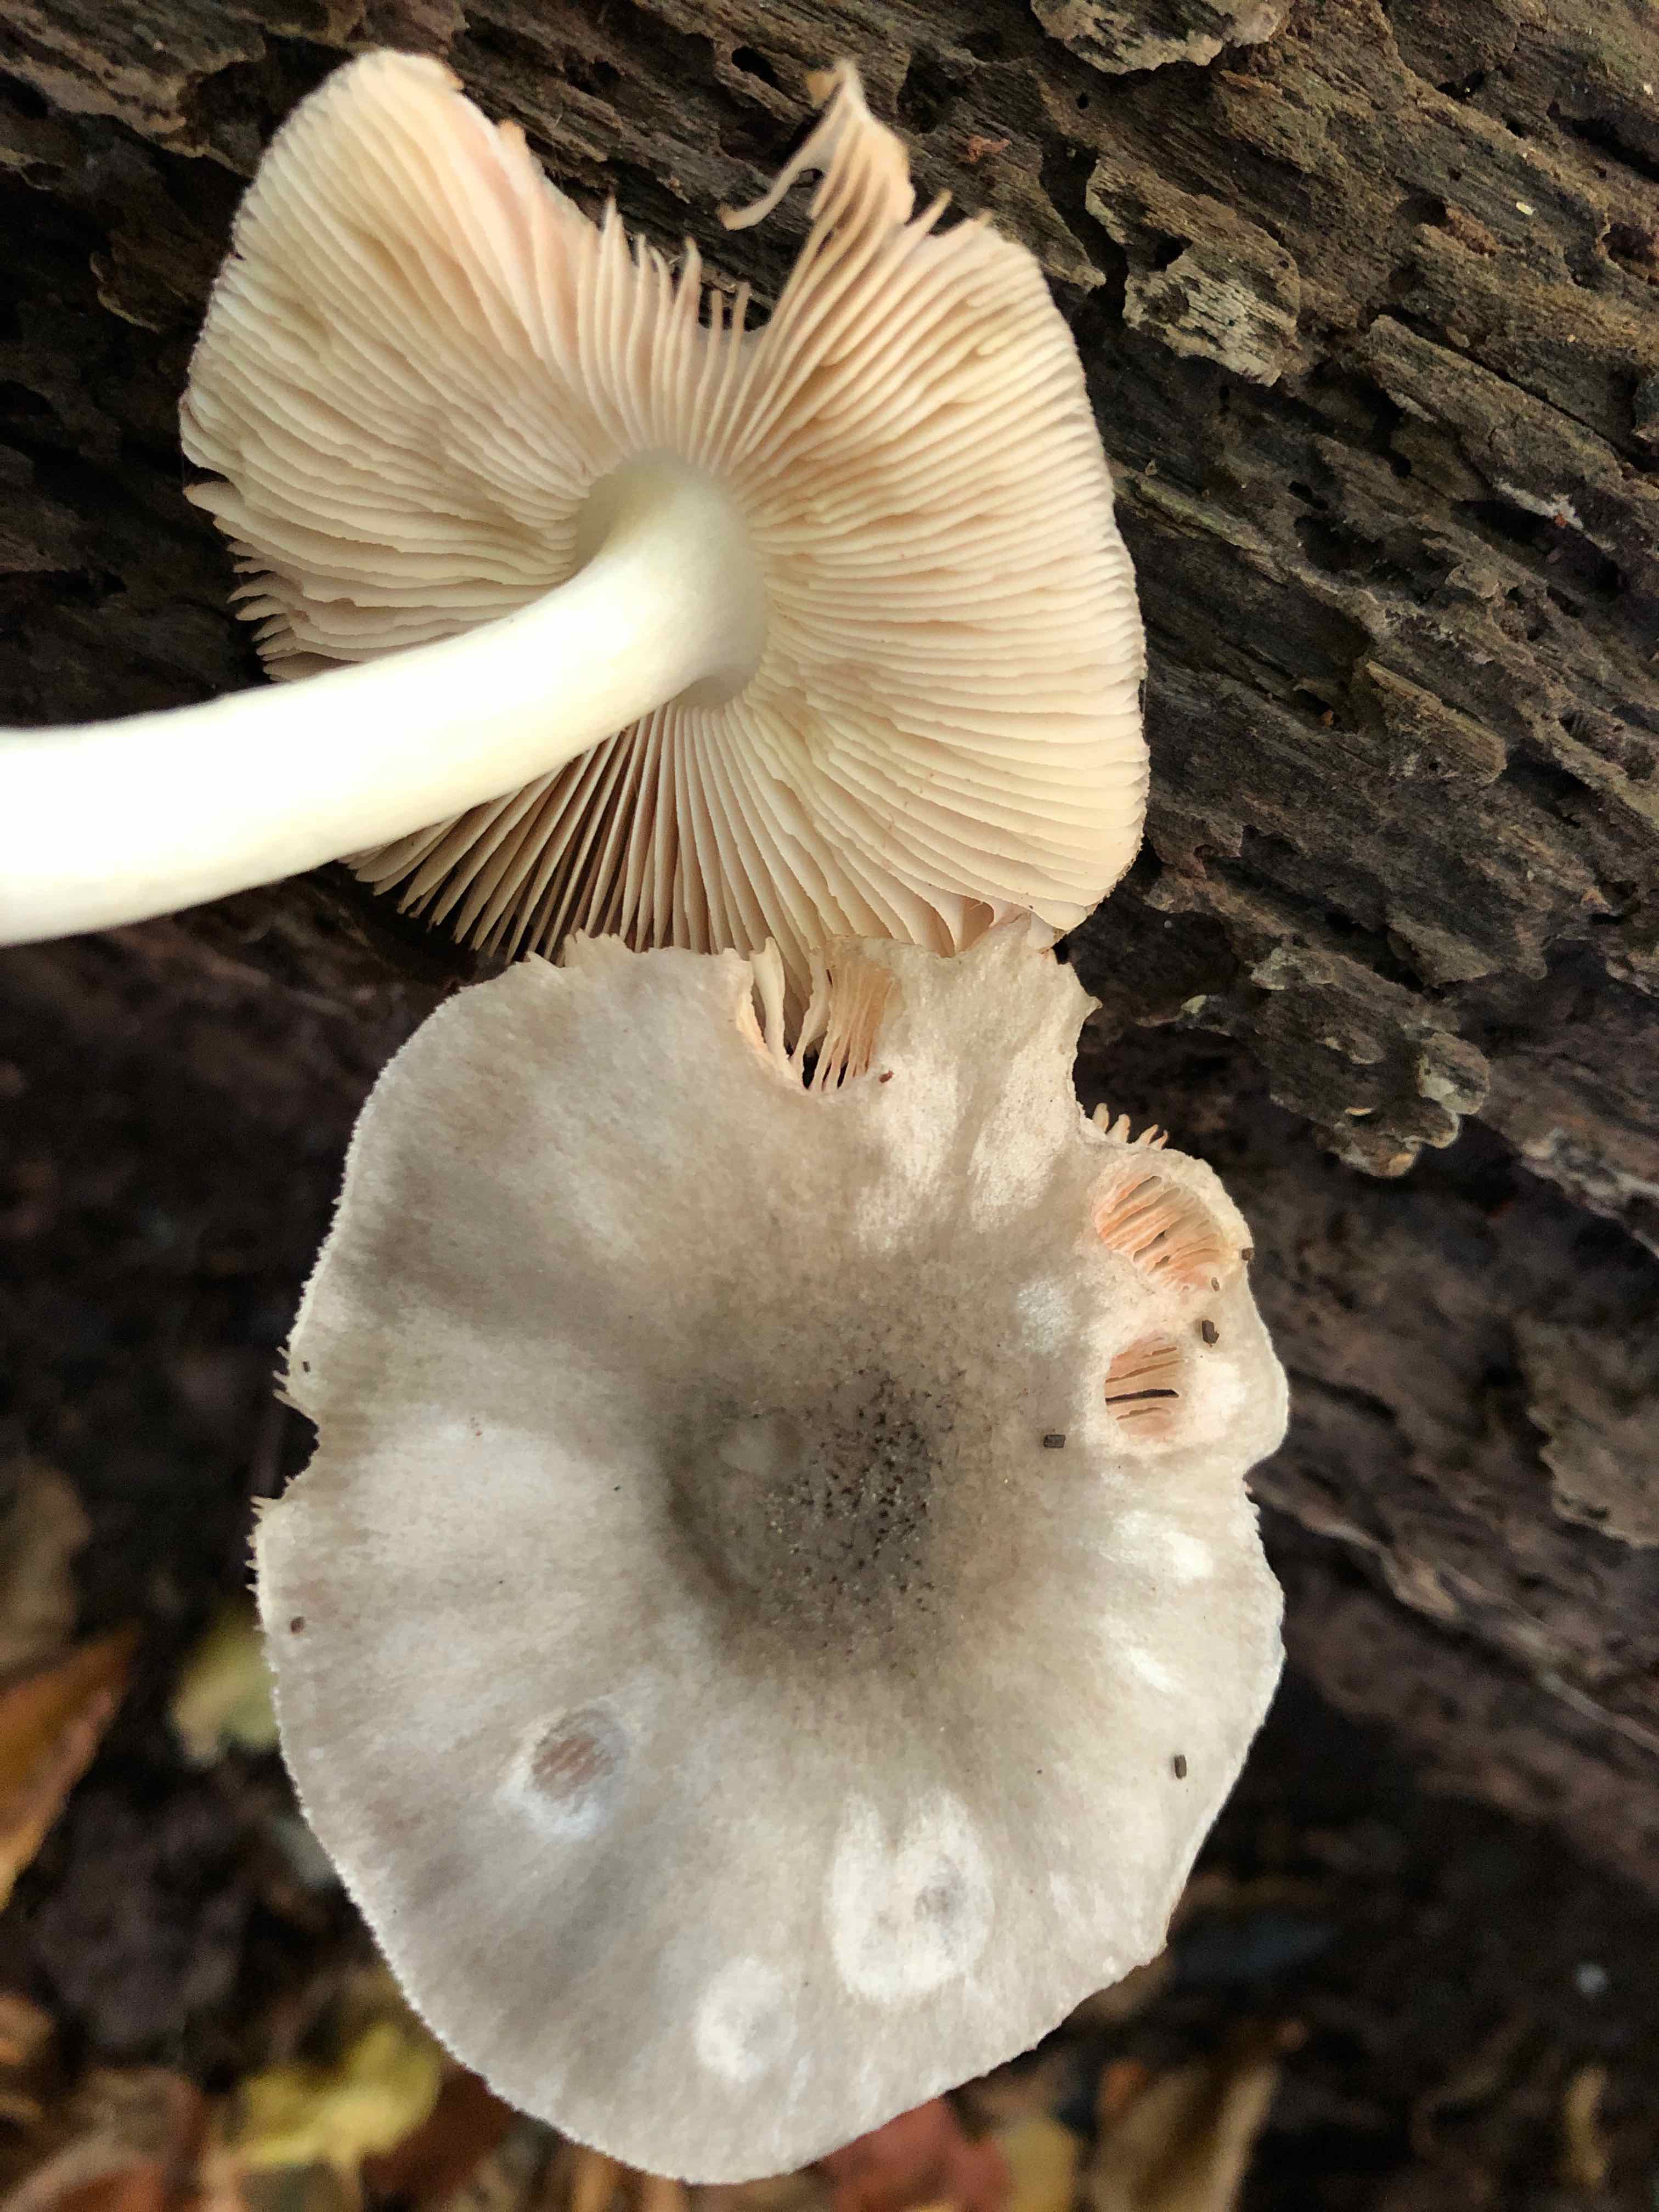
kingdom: Fungi
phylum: Basidiomycota
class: Agaricomycetes
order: Agaricales
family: Pluteaceae
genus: Pluteus
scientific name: Pluteus salicinus
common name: stiv skærmhat
